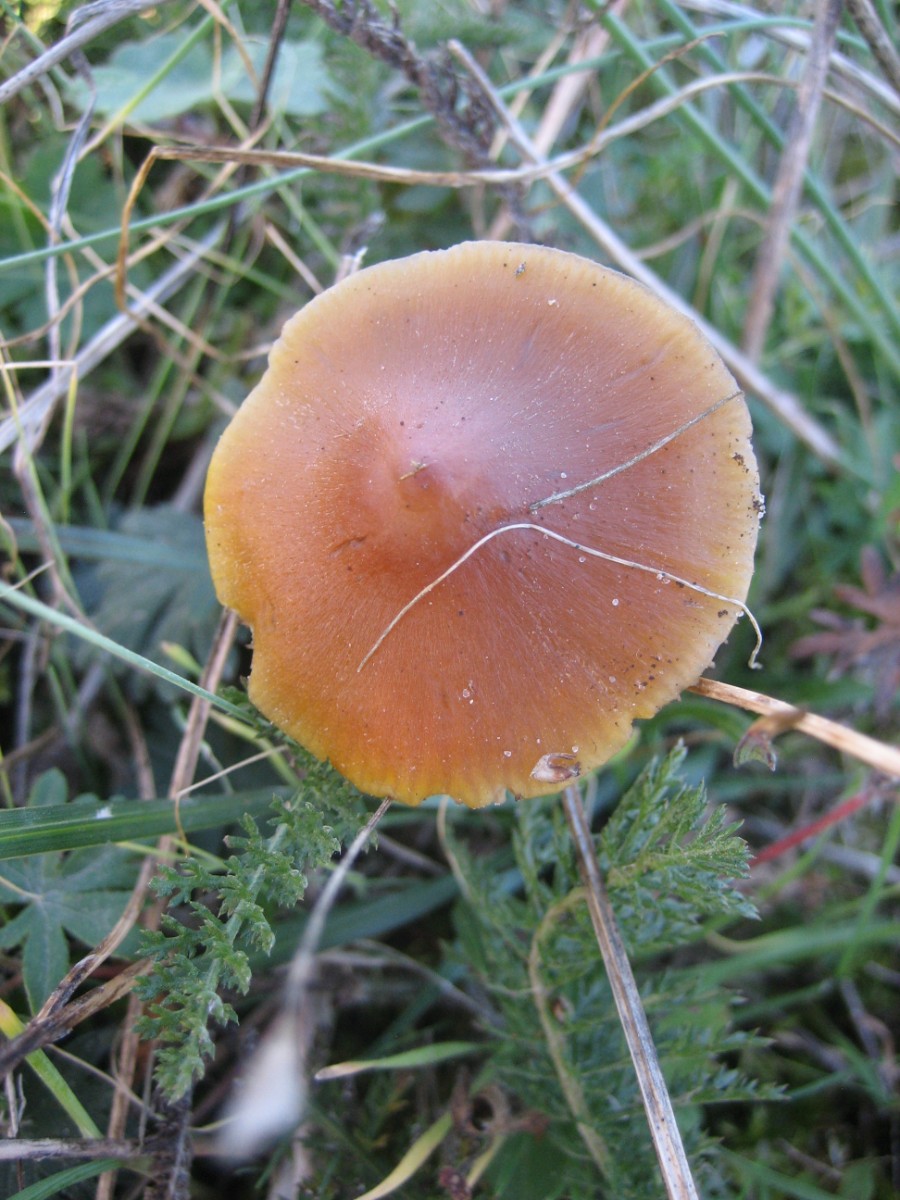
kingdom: Fungi
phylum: Basidiomycota
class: Agaricomycetes
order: Agaricales
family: Hygrophoraceae
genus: Hygrocybe
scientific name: Hygrocybe conica
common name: kegle-vokshat
